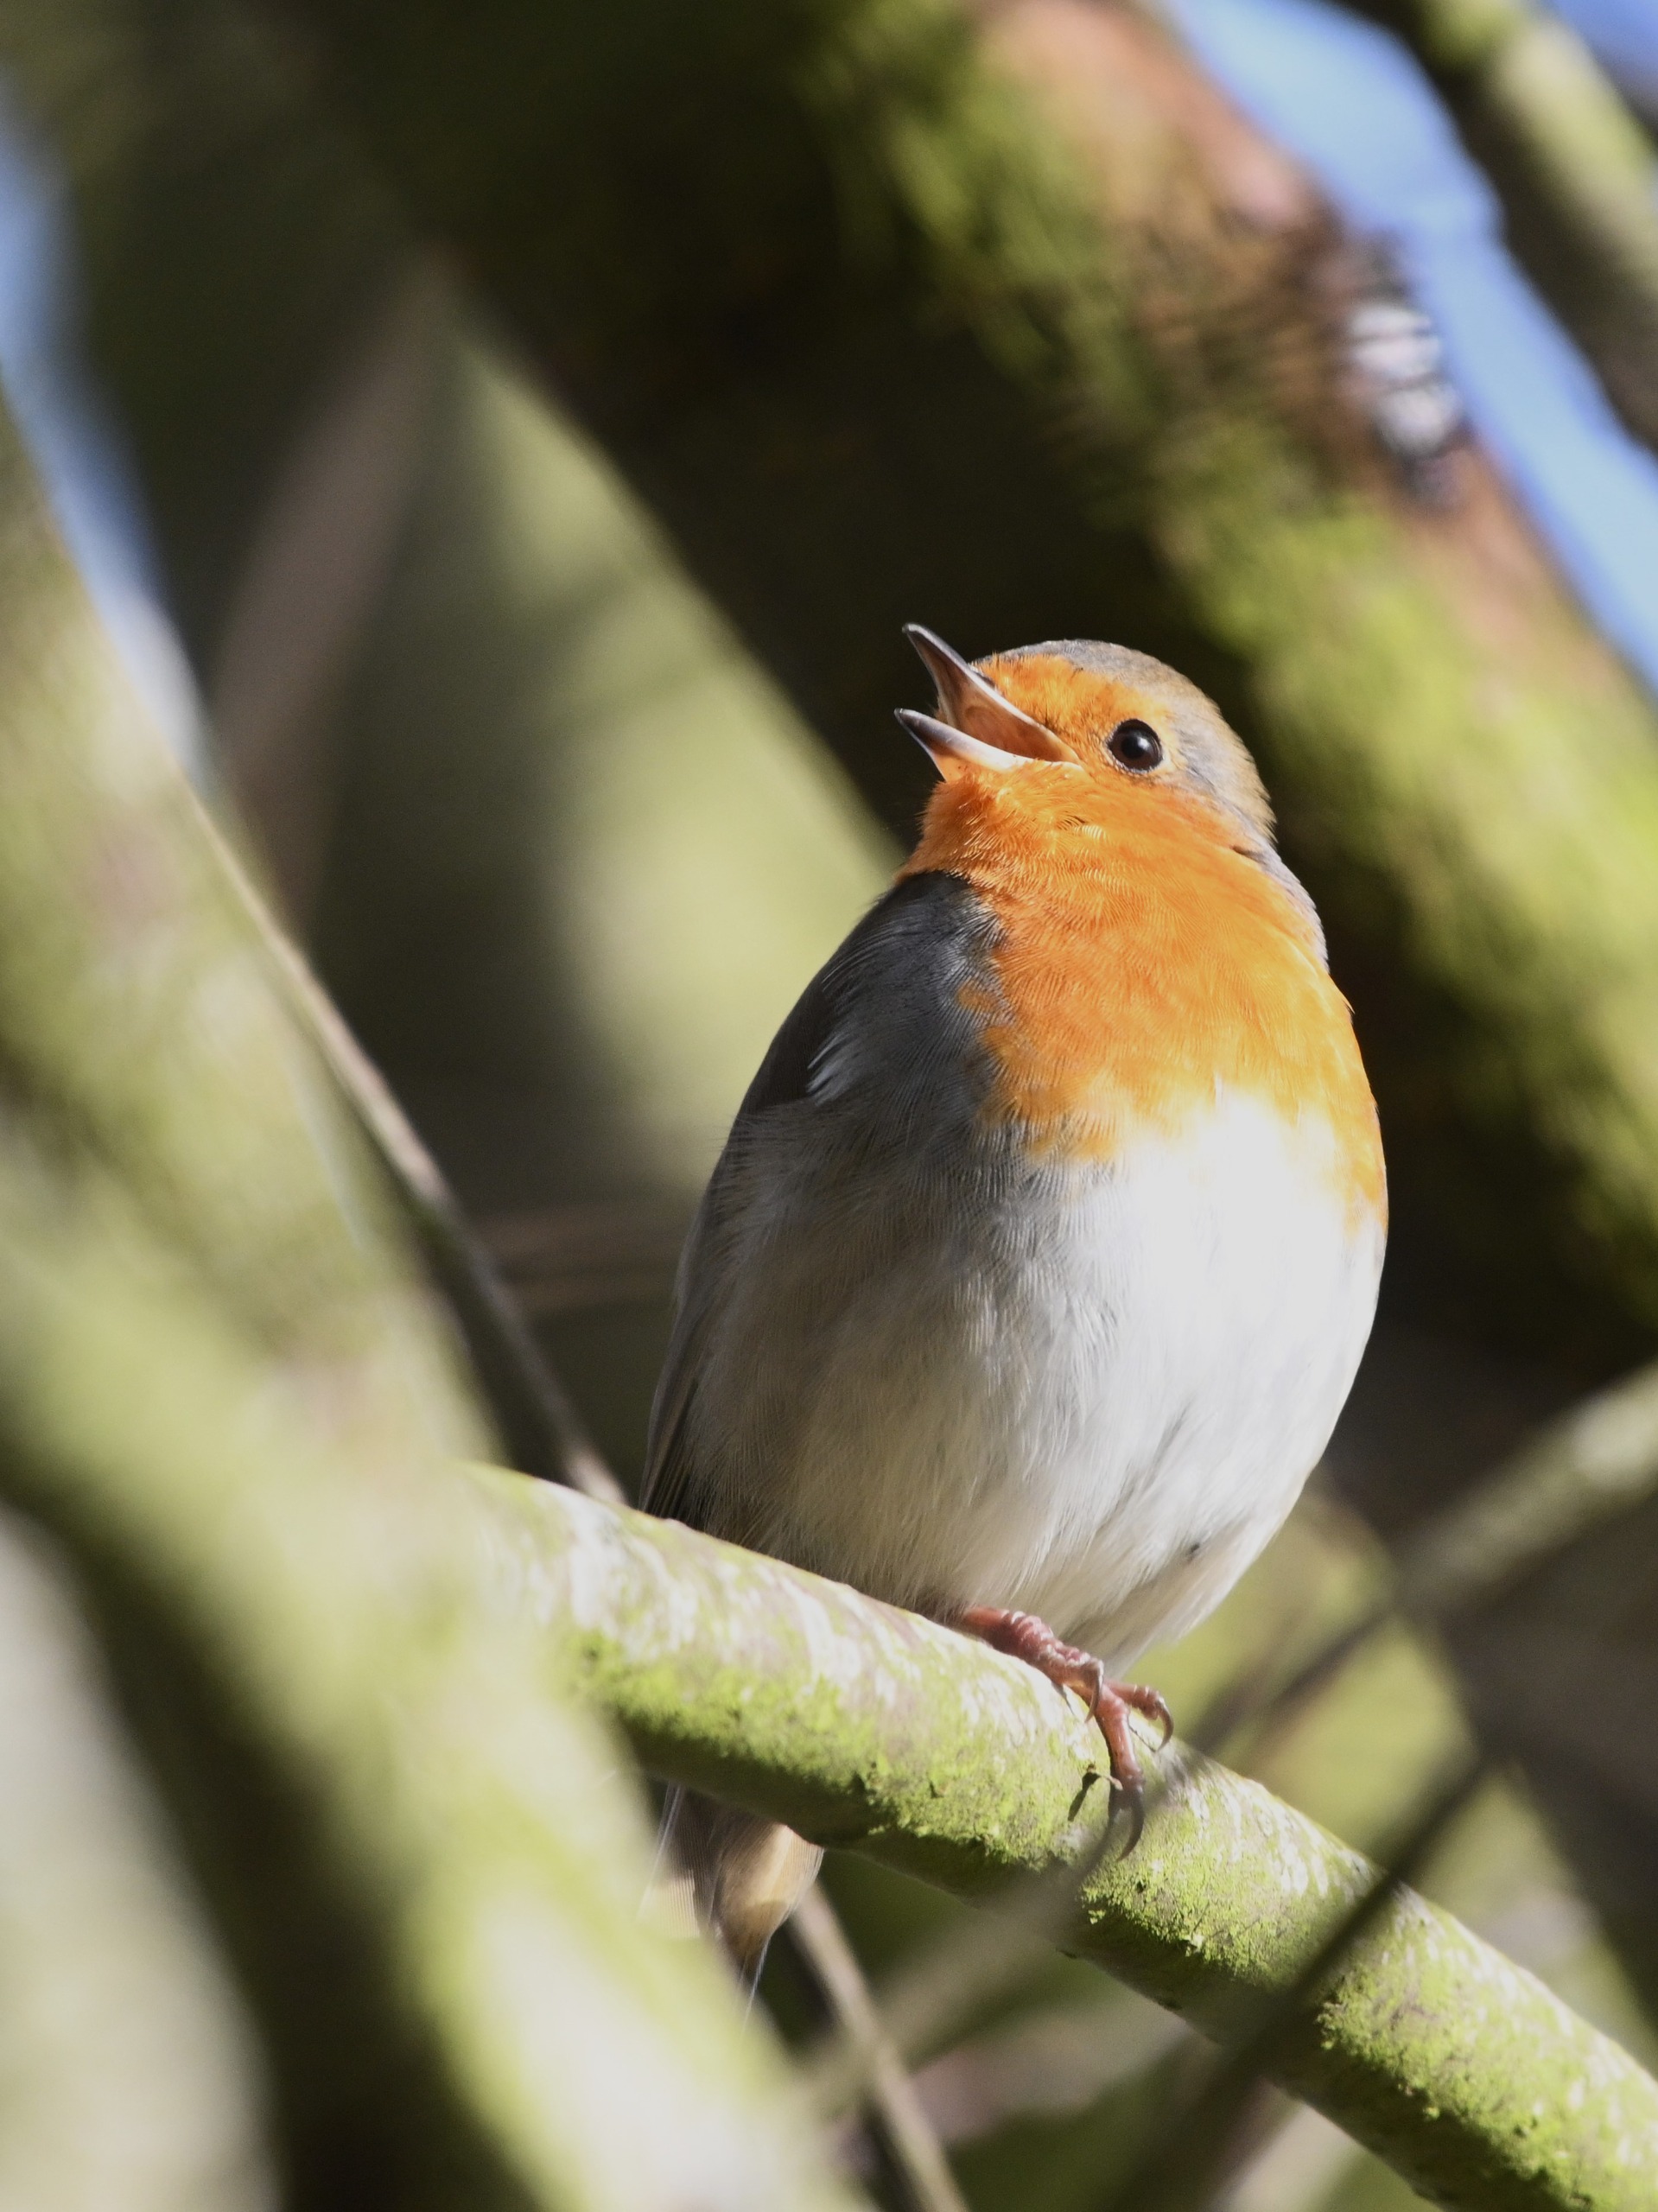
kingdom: Animalia
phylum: Chordata
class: Aves
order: Passeriformes
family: Muscicapidae
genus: Erithacus
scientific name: Erithacus rubecula
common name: Rødhals/rødkælk
